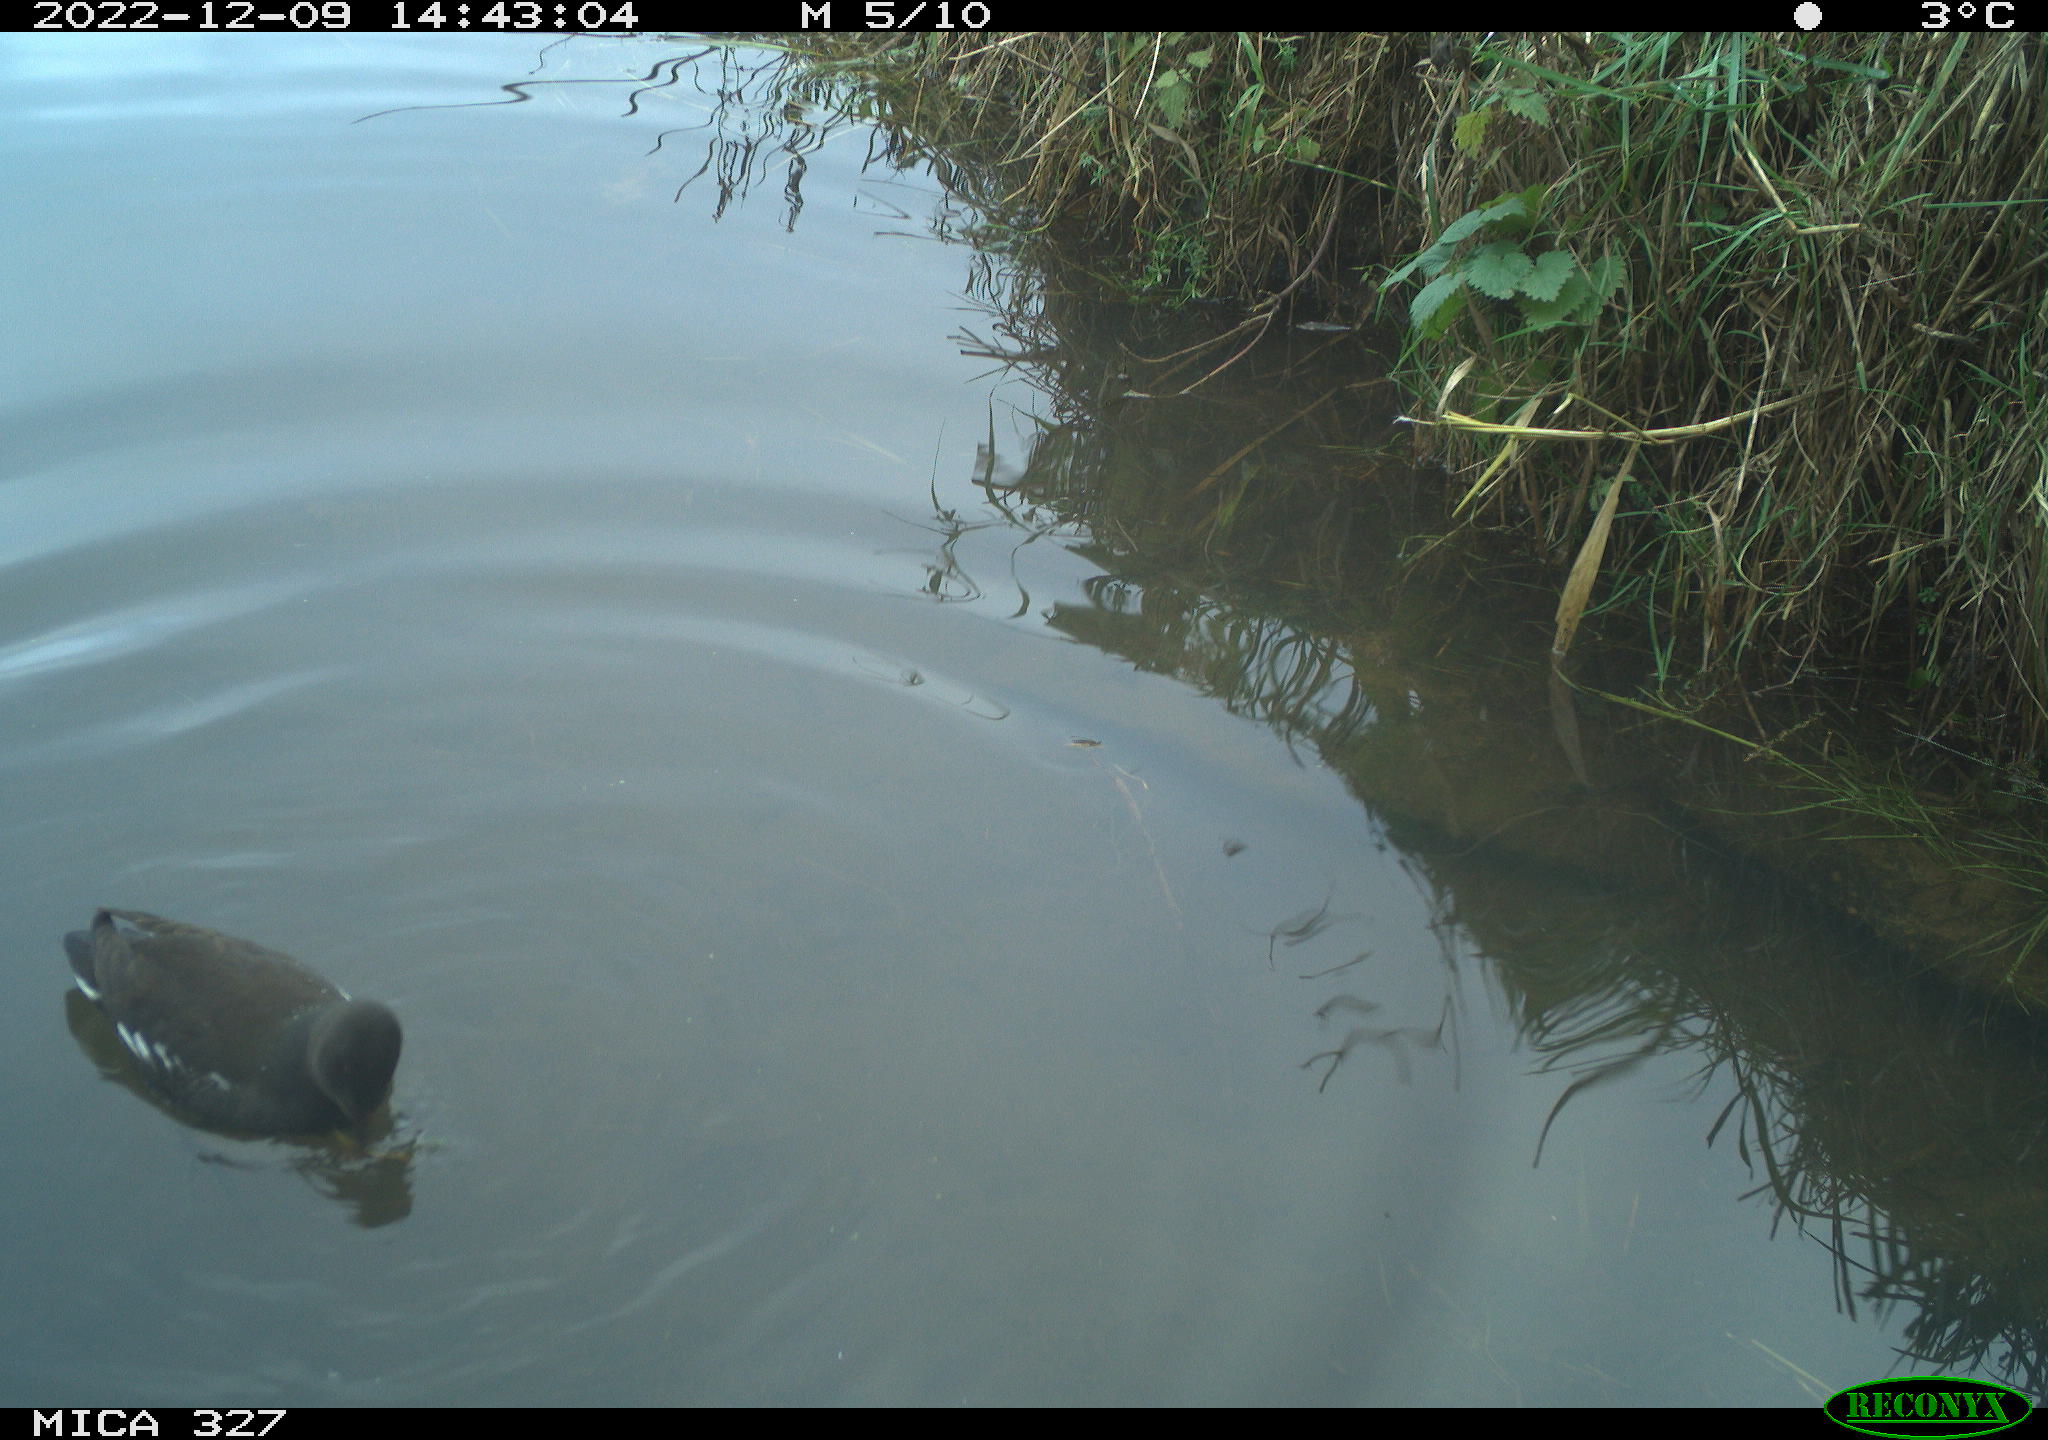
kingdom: Animalia
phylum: Chordata
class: Aves
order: Gruiformes
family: Rallidae
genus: Gallinula
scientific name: Gallinula chloropus
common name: Common moorhen
